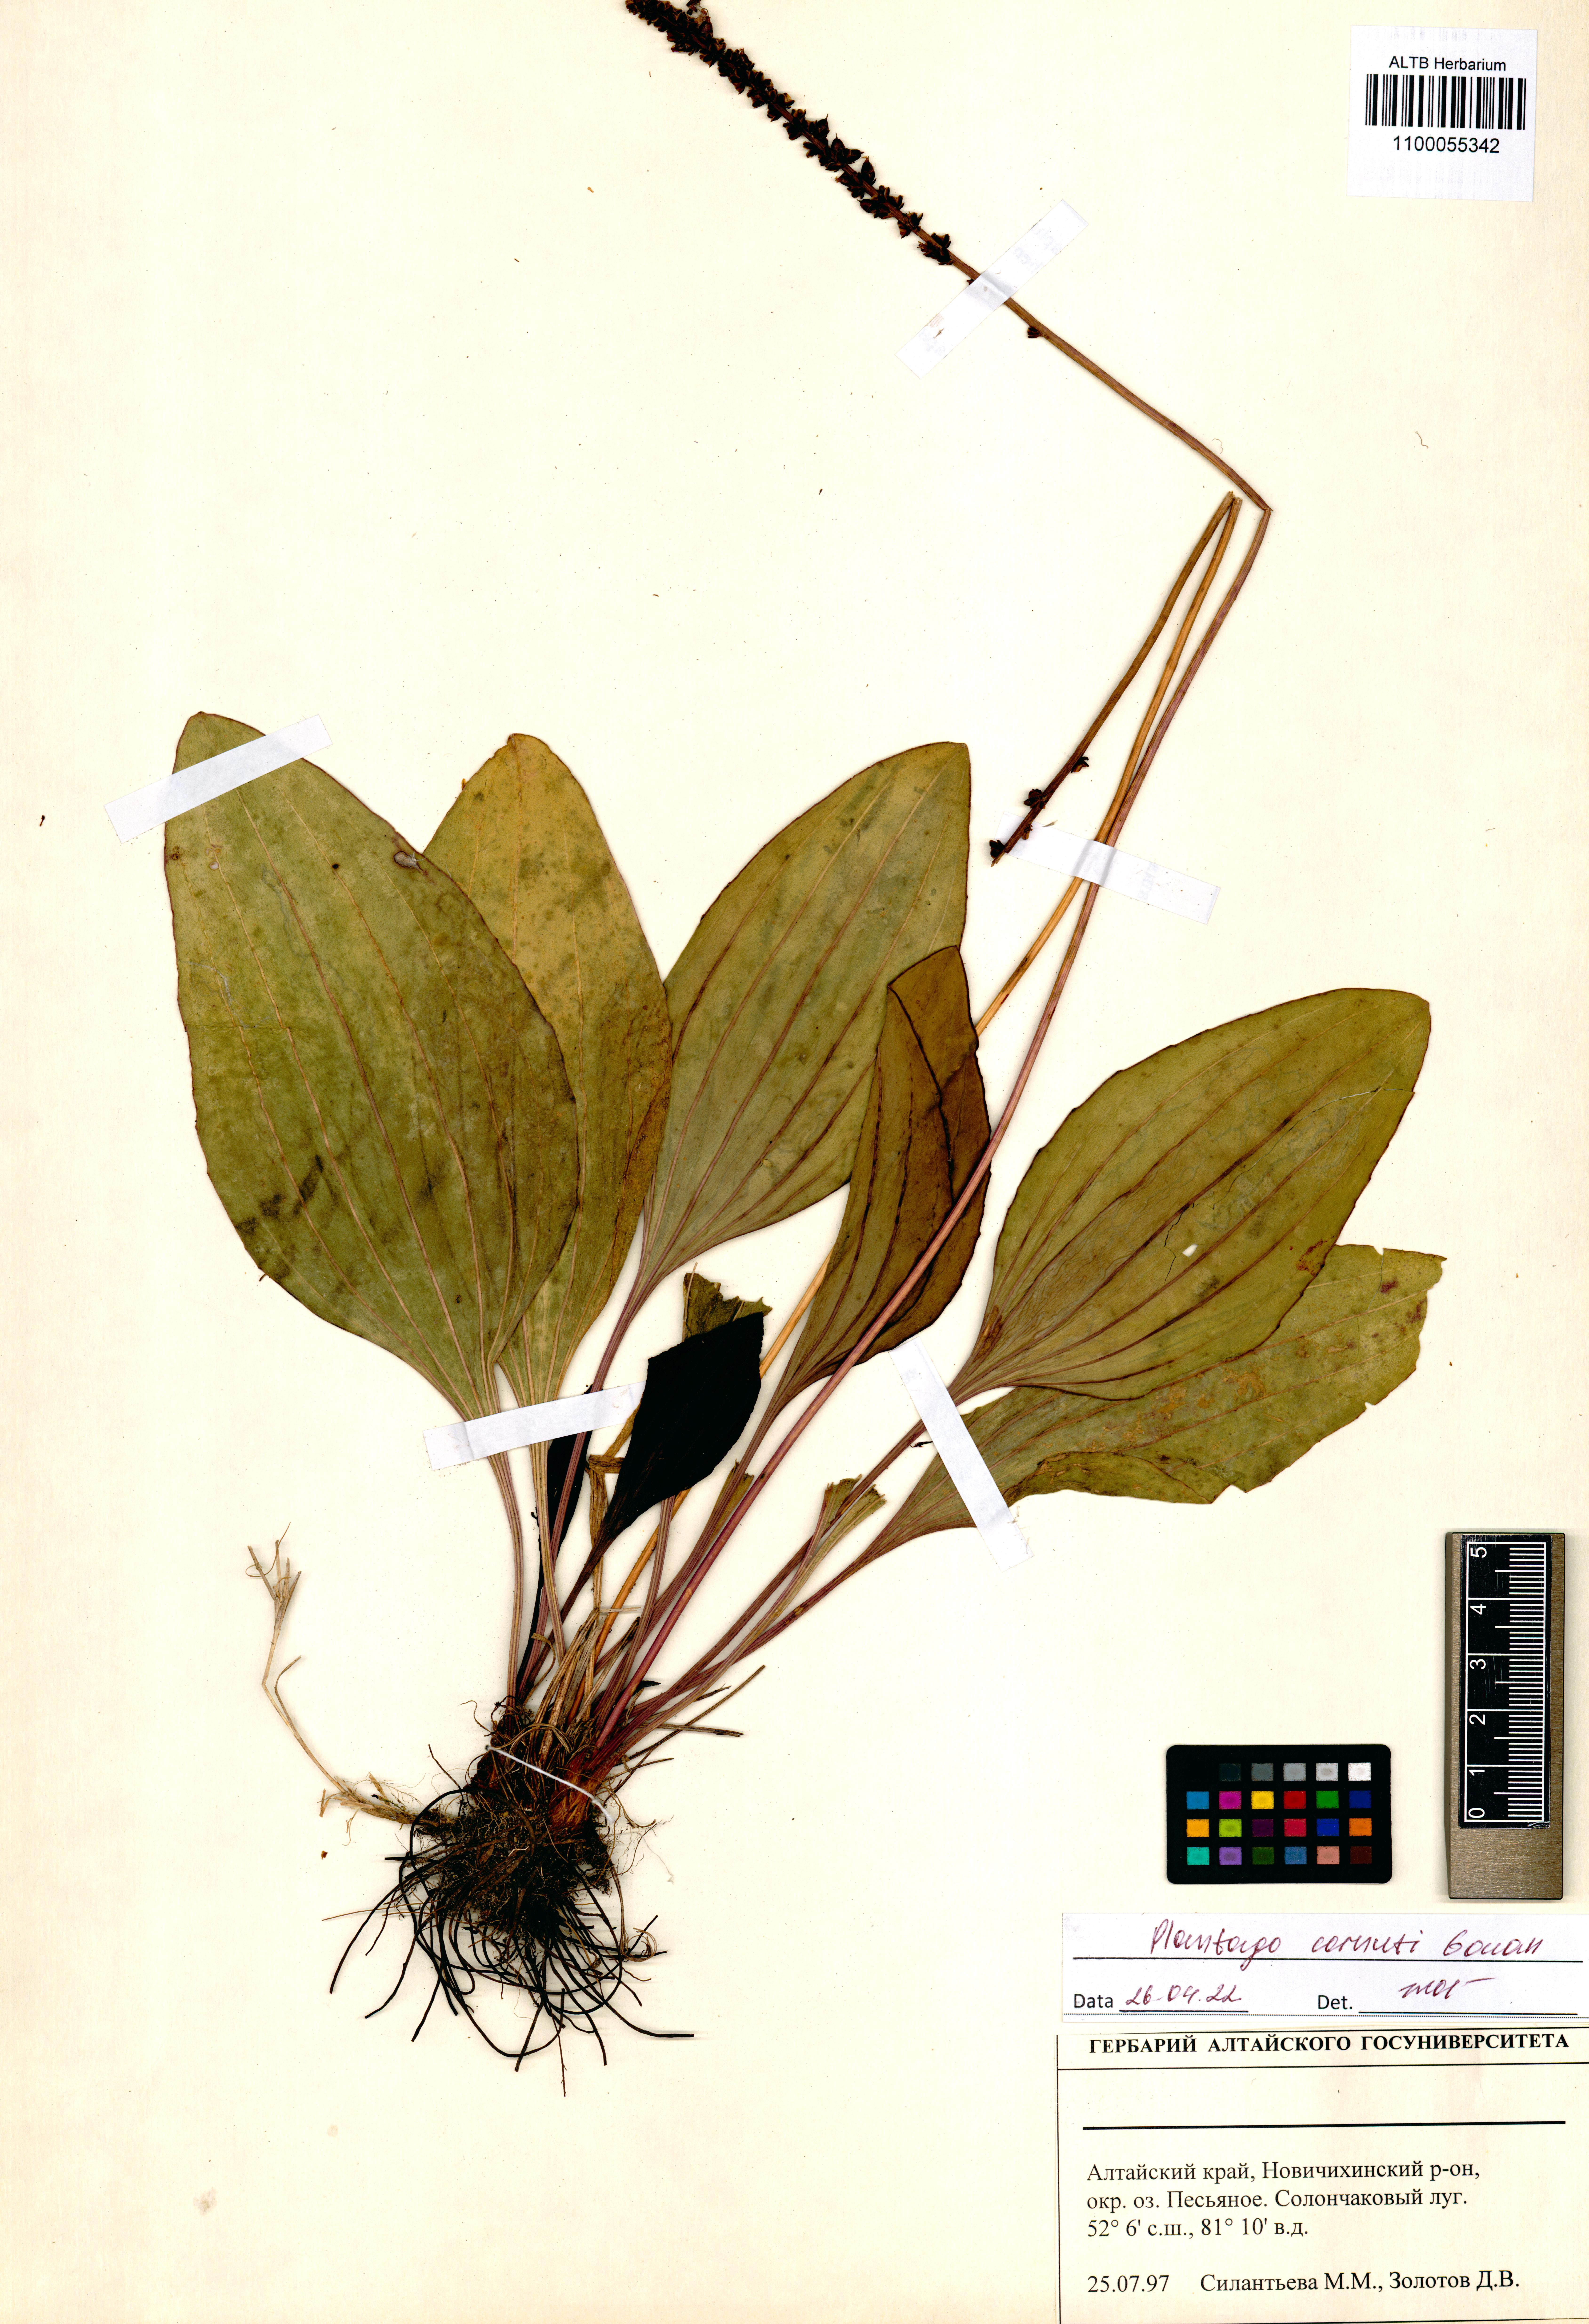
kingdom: Plantae
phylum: Tracheophyta
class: Magnoliopsida
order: Lamiales
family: Plantaginaceae
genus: Plantago
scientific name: Plantago cornuti
